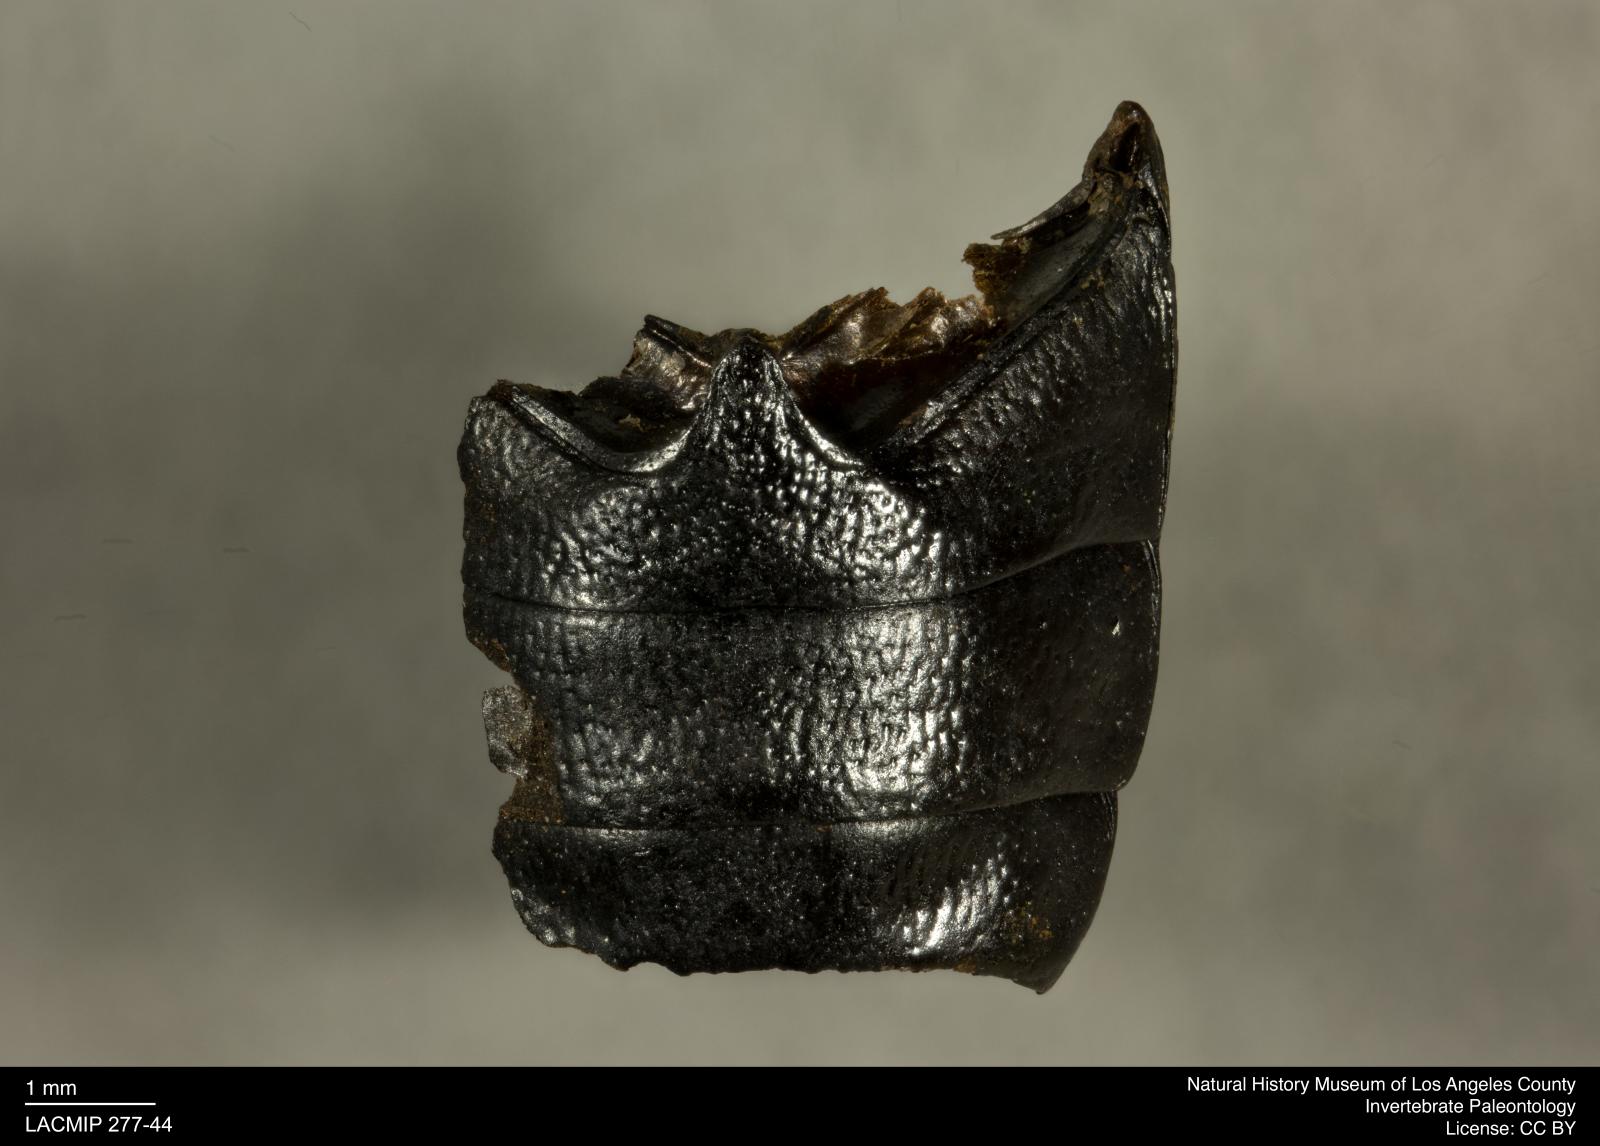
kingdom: Animalia
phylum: Arthropoda
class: Insecta
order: Coleoptera
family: Tenebrionidae
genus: Coniontis
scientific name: Coniontis abdominalis
